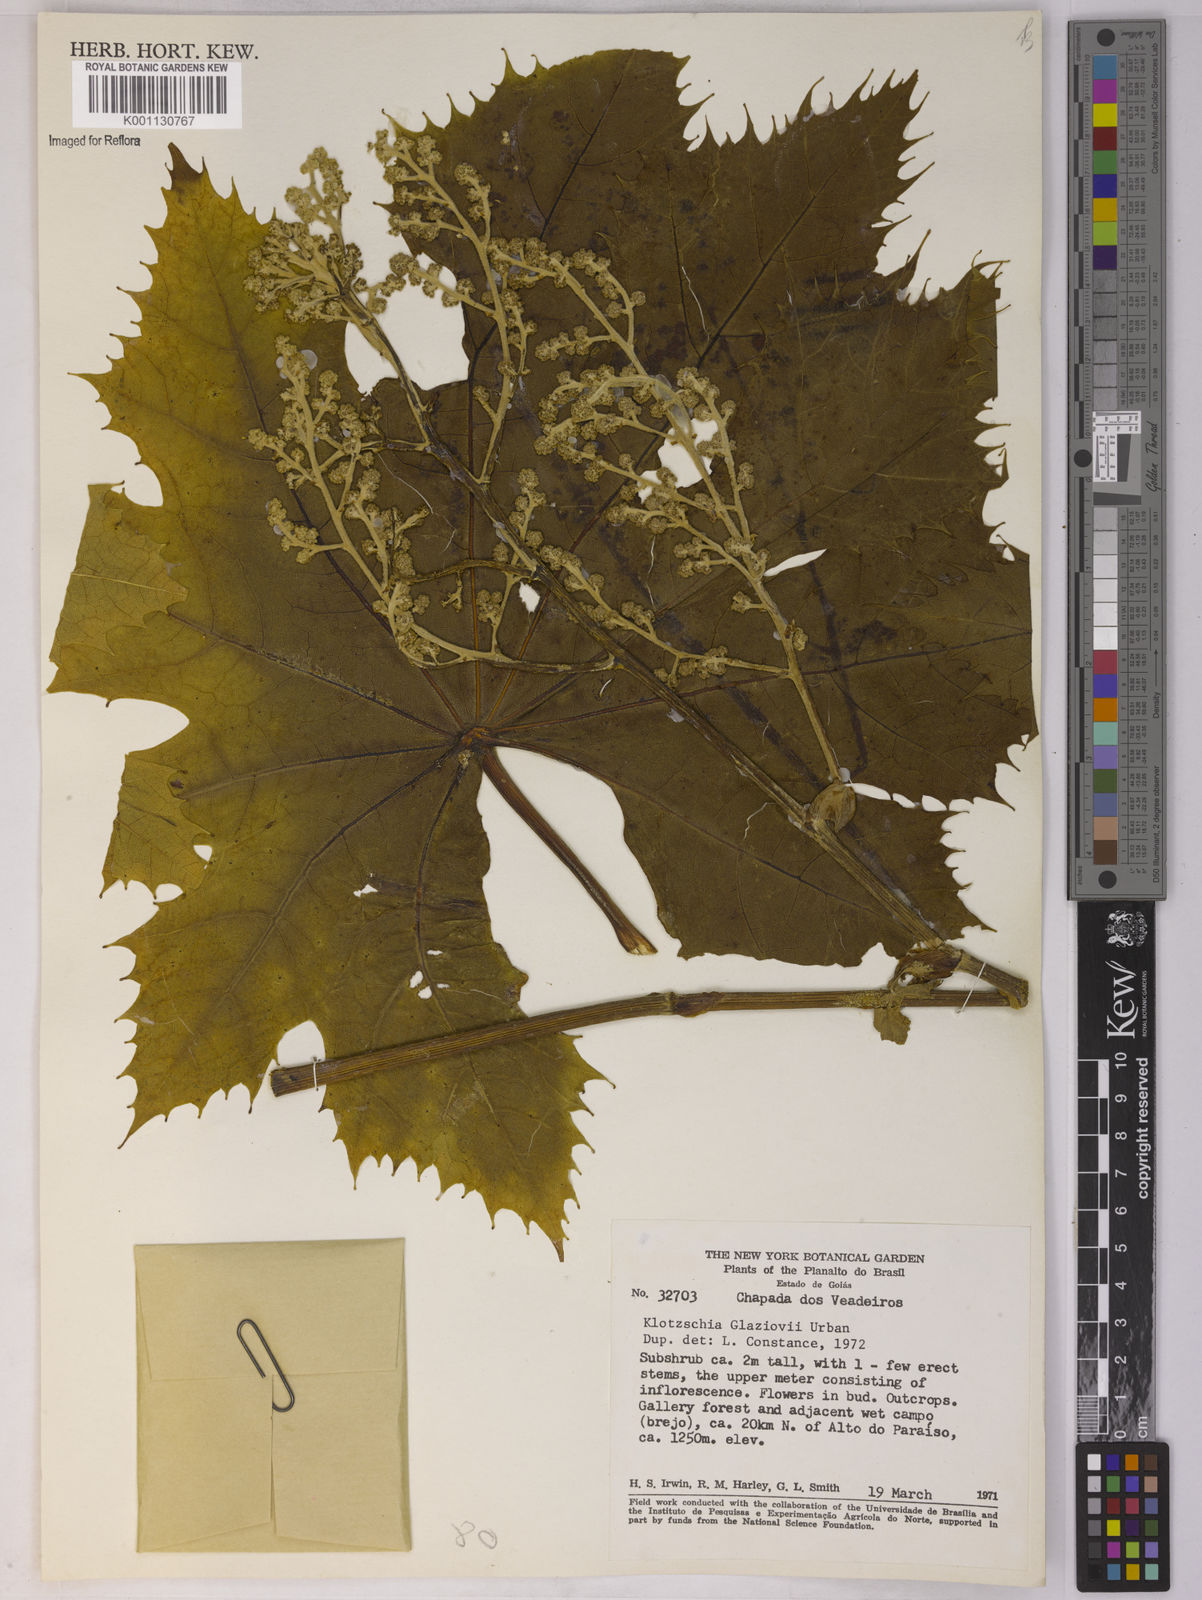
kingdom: Plantae
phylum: Tracheophyta
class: Magnoliopsida
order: Apiales
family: Apiaceae
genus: Klotzschia
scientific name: Klotzschia glaziovii
